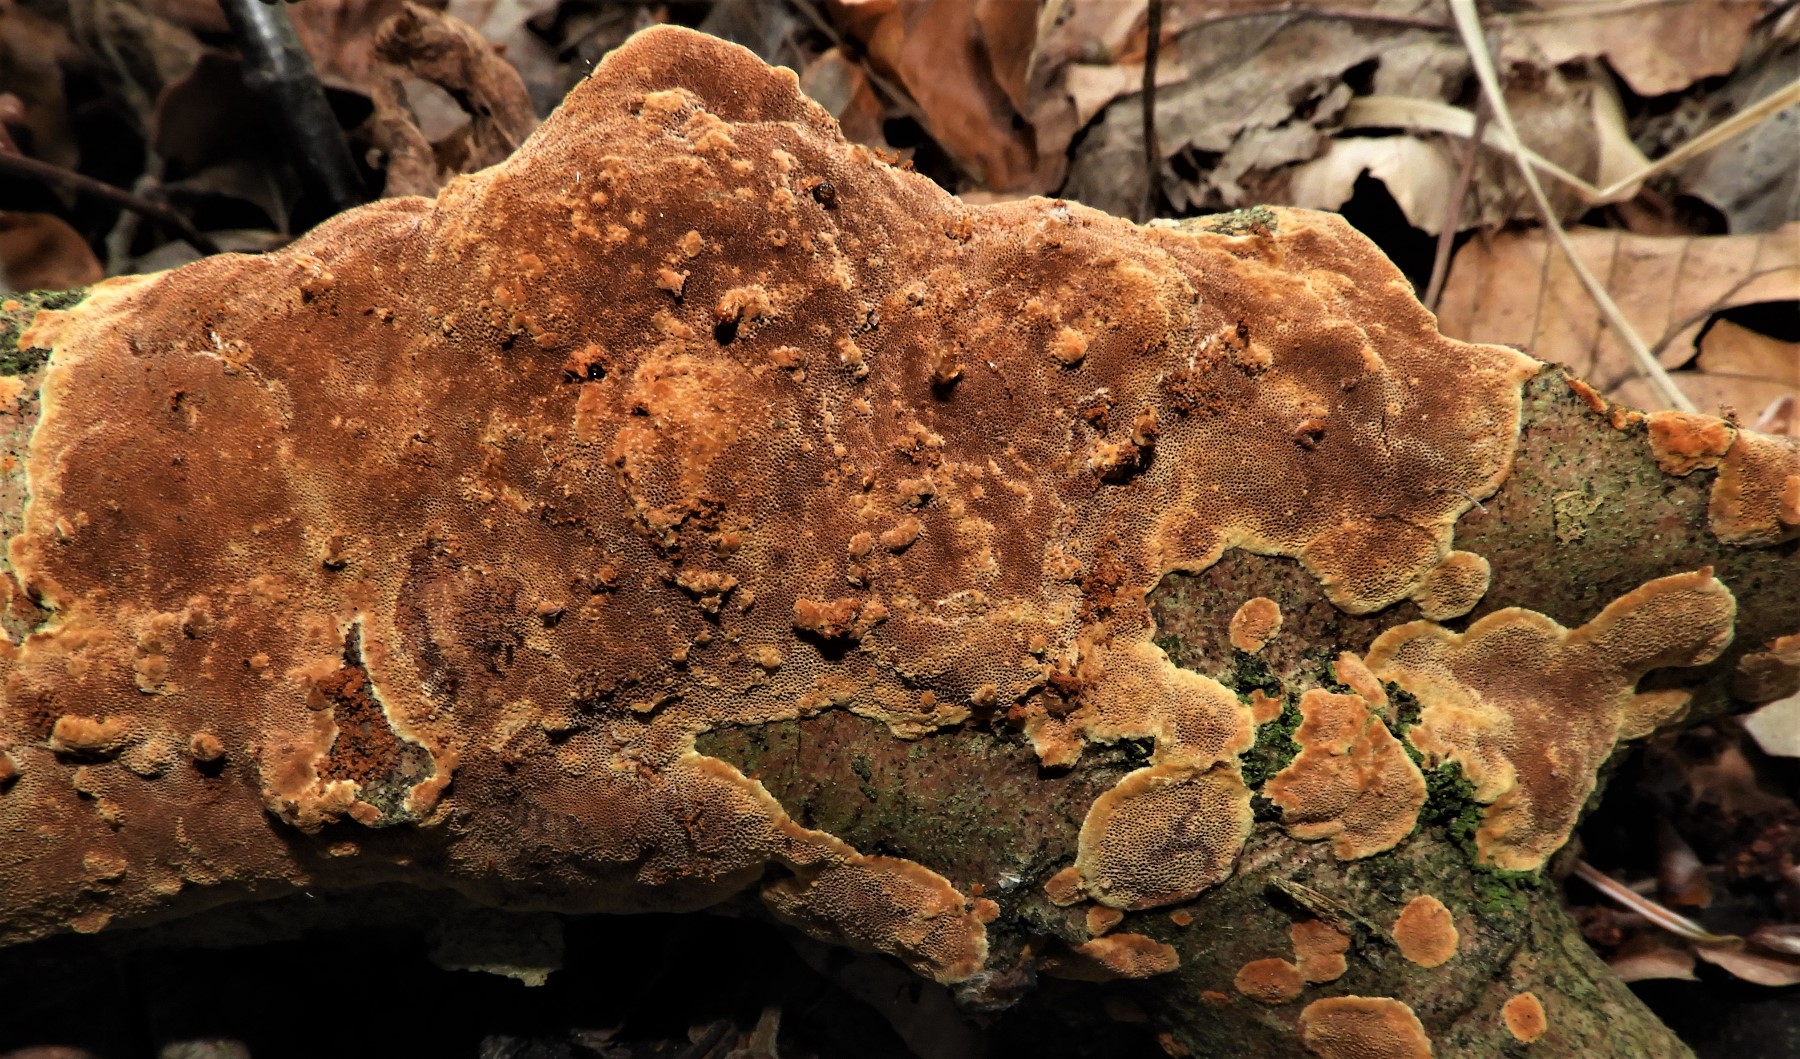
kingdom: Fungi
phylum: Basidiomycota
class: Agaricomycetes
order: Hymenochaetales
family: Hymenochaetaceae
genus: Fuscoporia
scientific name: Fuscoporia ferrea
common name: skorpe-ildporesvamp
